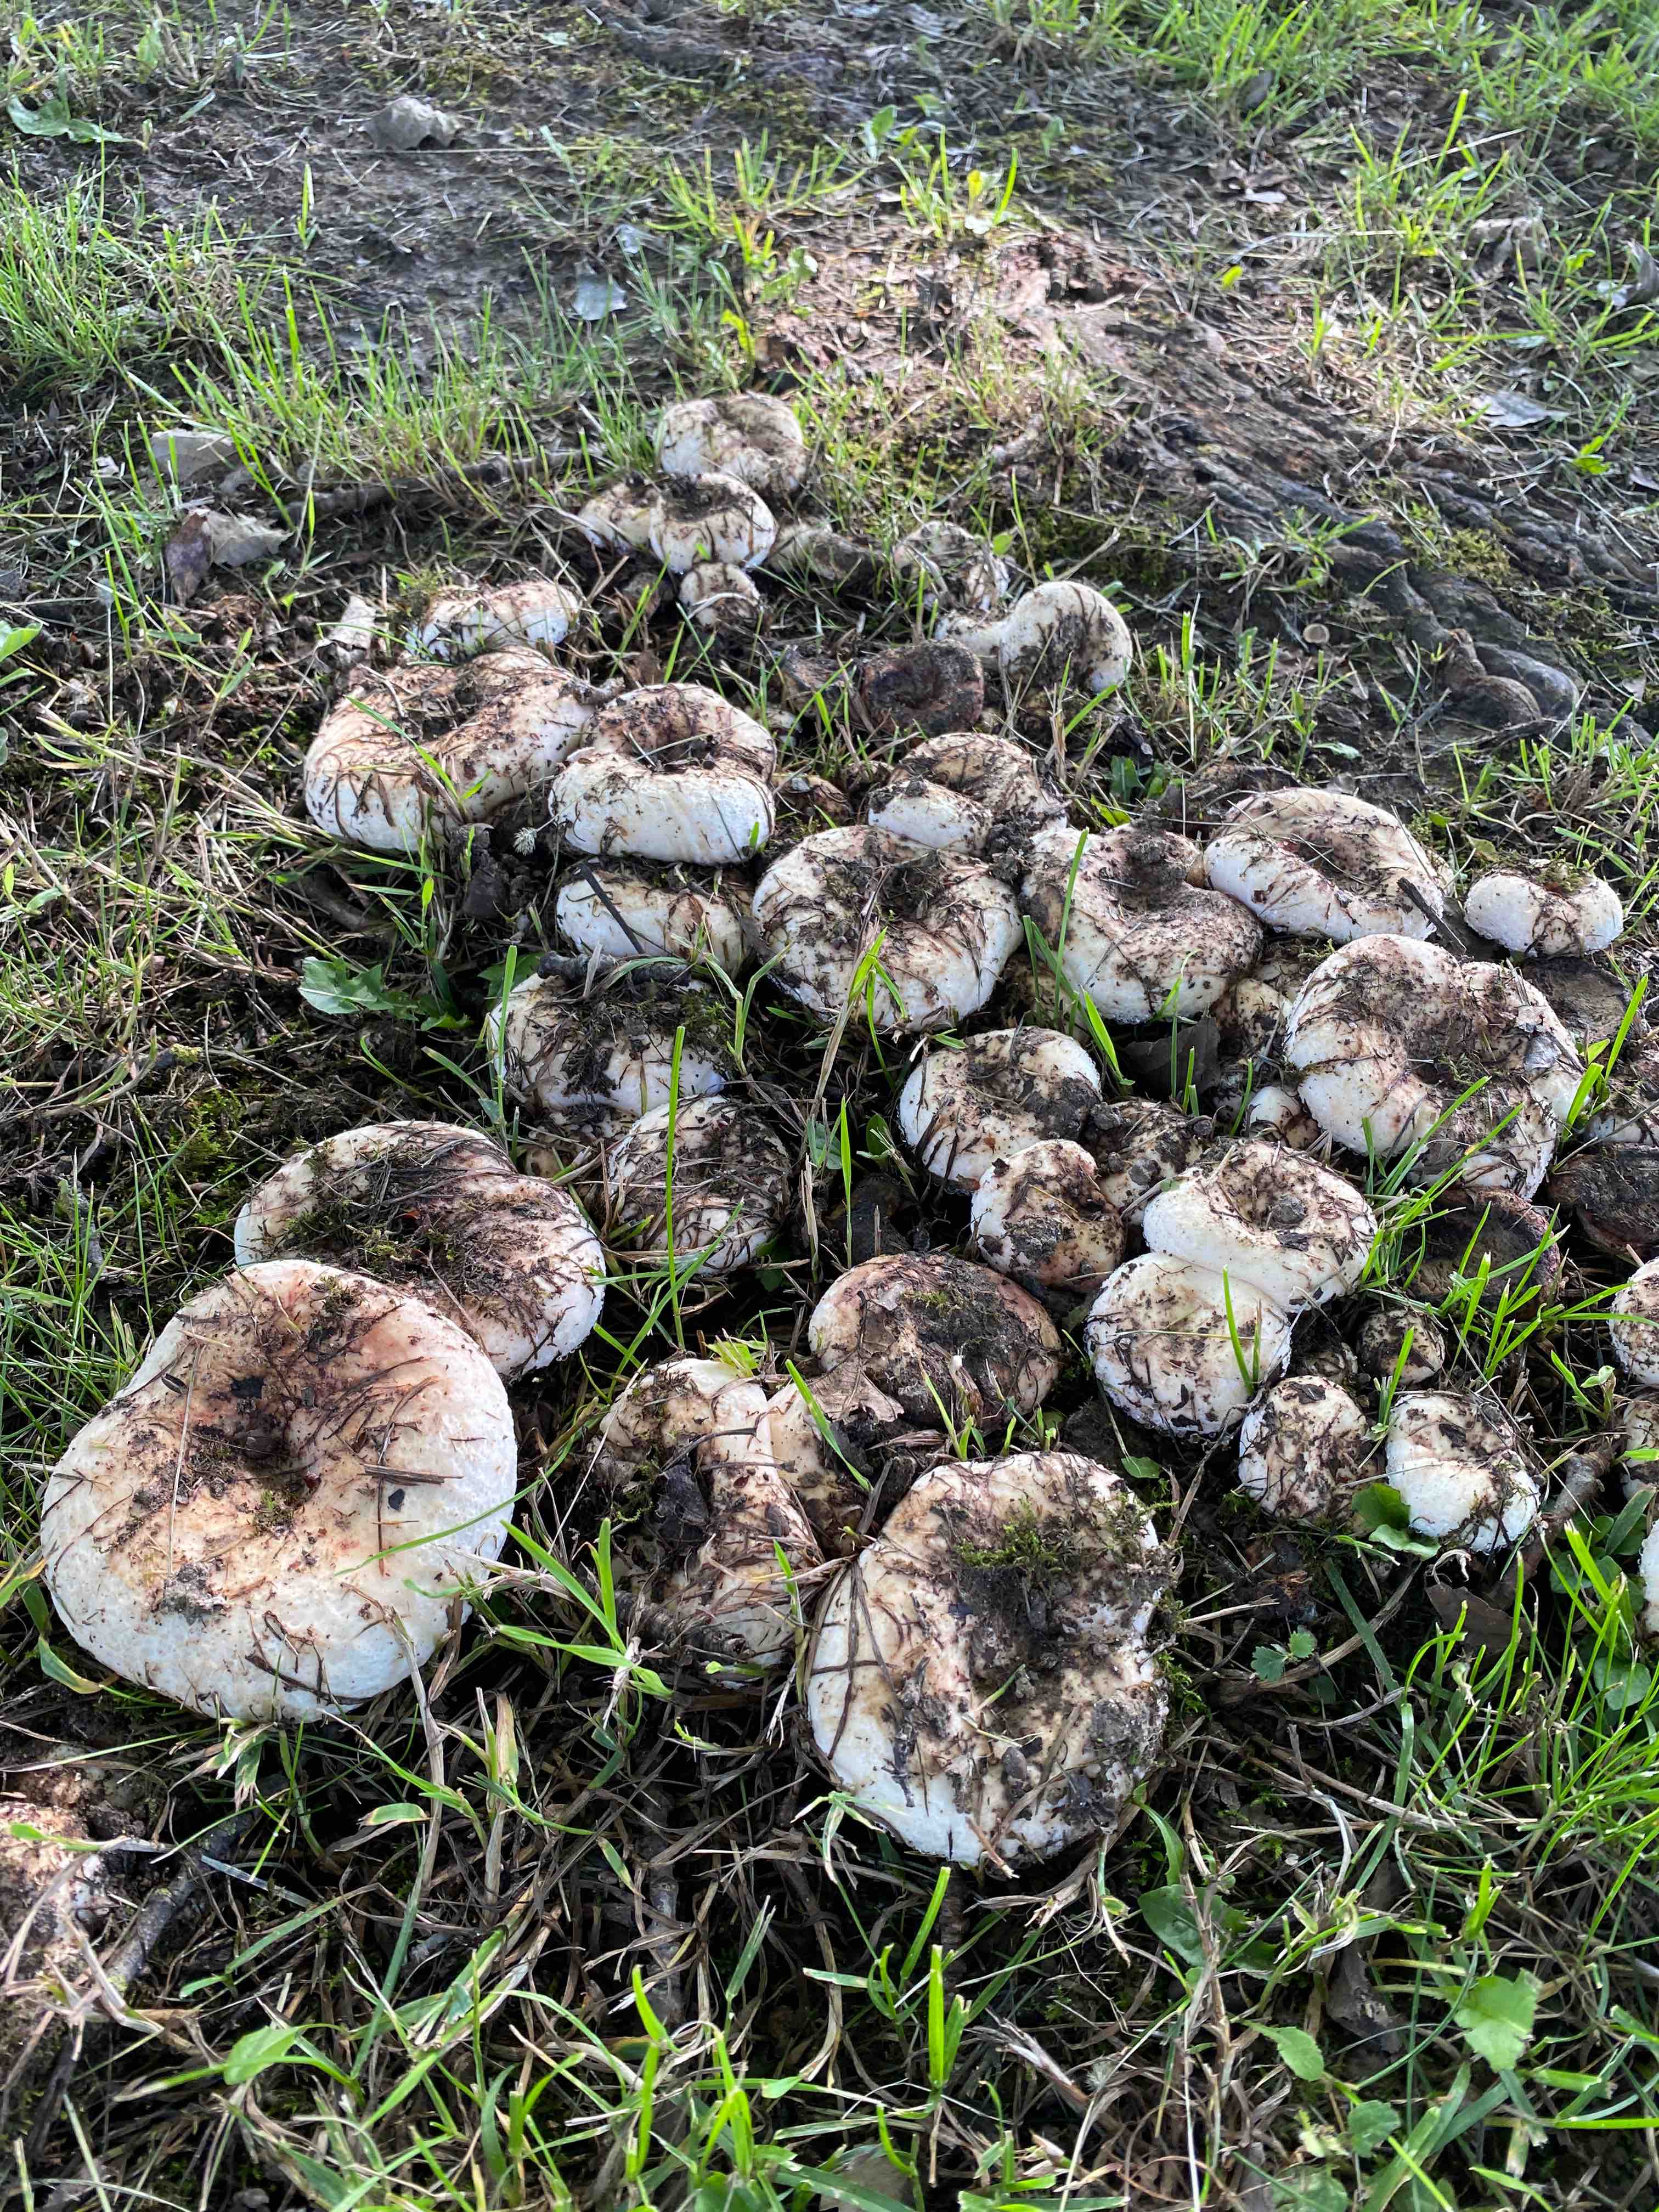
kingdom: Fungi
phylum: Basidiomycota
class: Agaricomycetes
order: Russulales
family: Russulaceae
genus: Lactarius
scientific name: Lactarius controversus
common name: rosabladet mælkehat
